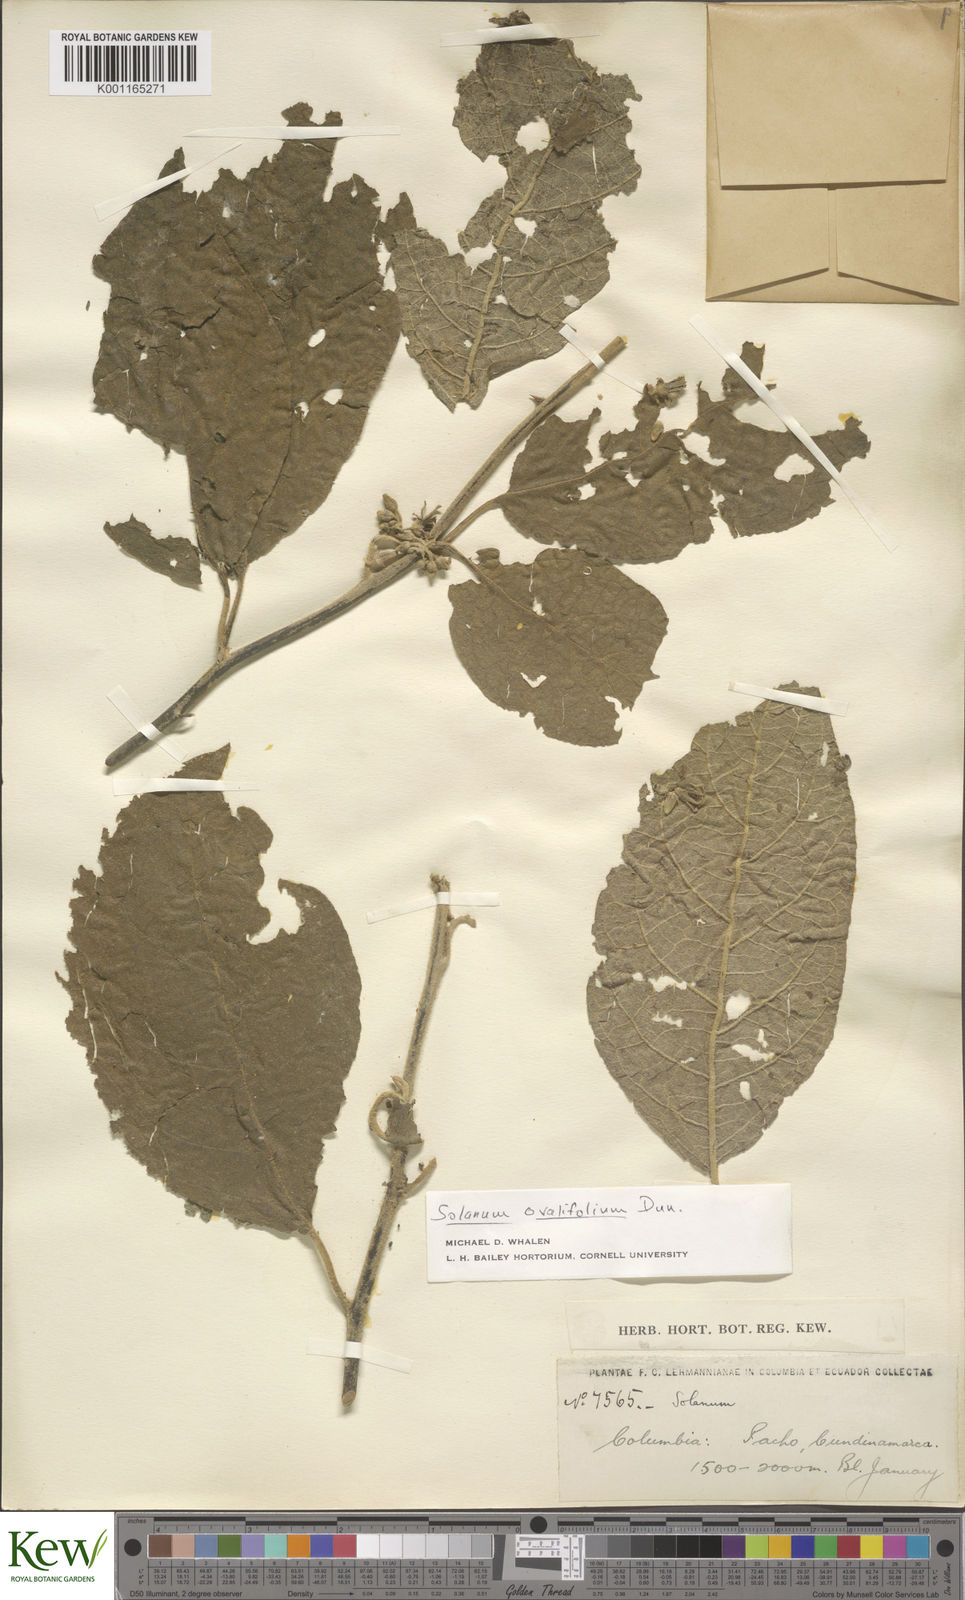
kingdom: Plantae
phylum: Tracheophyta
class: Magnoliopsida
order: Solanales
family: Solanaceae
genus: Solanum
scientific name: Solanum ovalifolium
